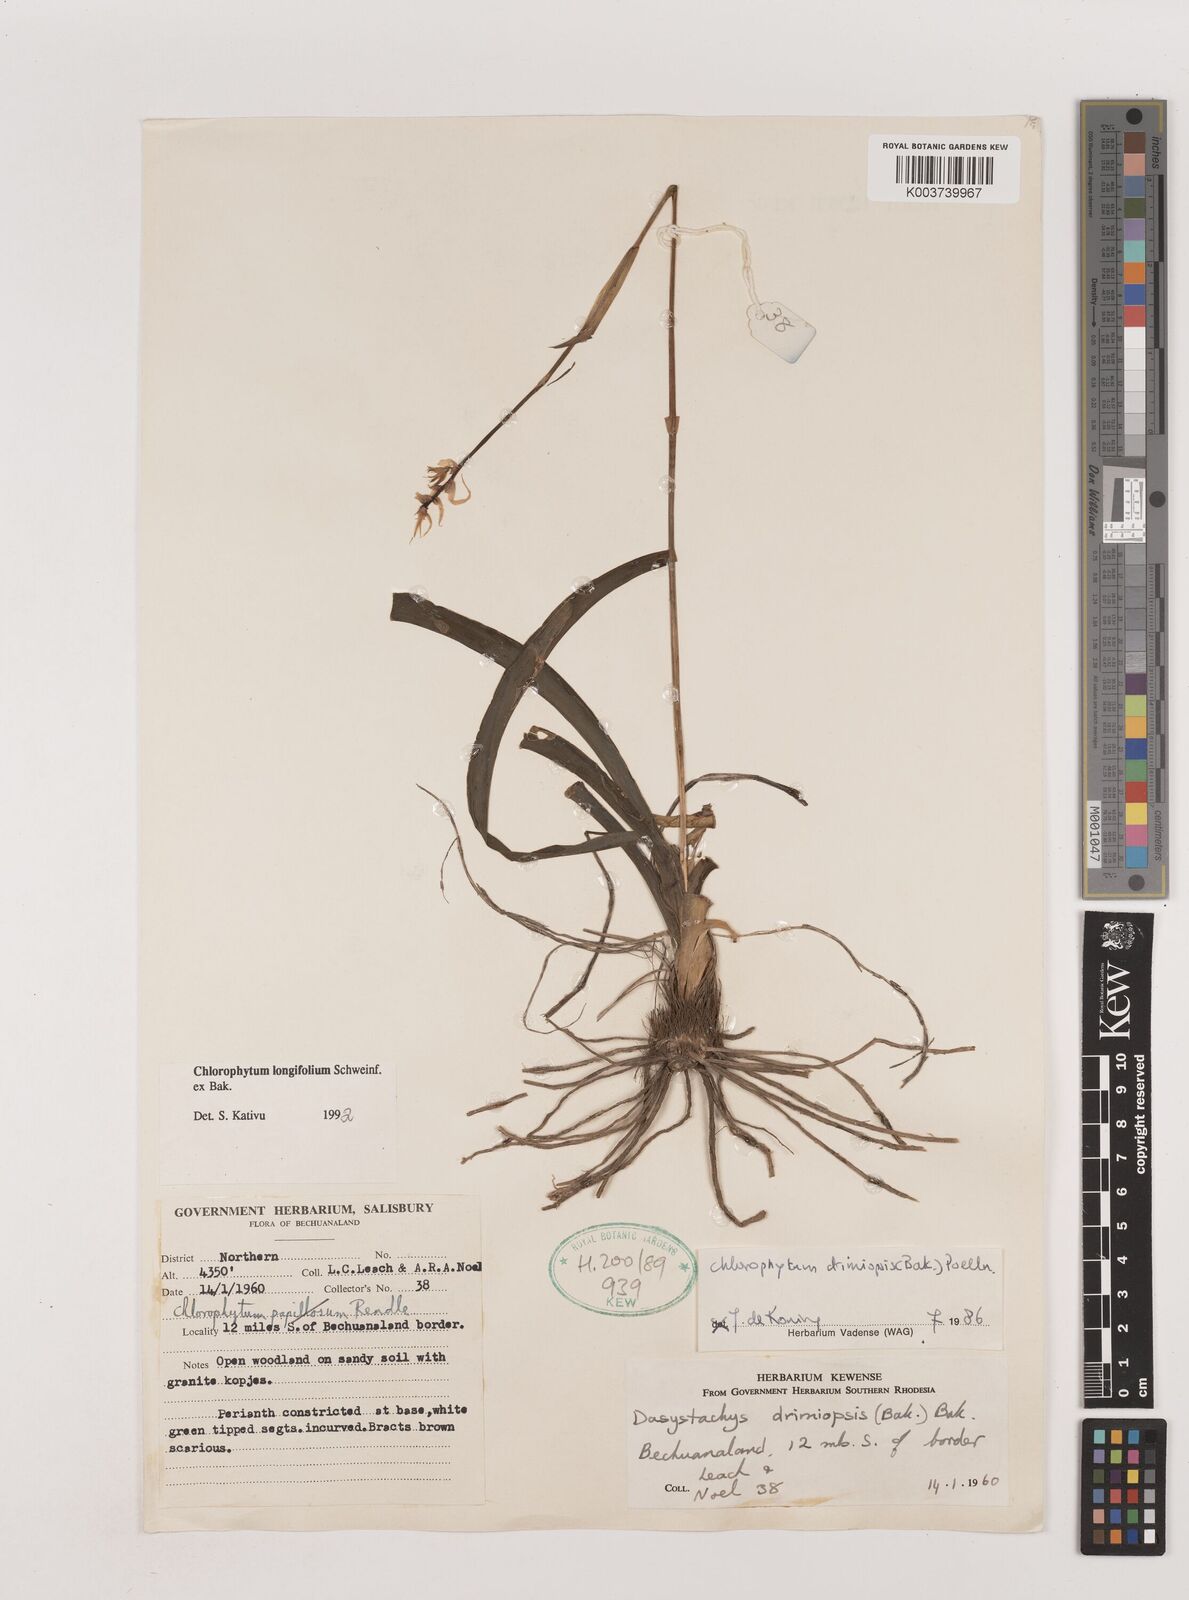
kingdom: Plantae
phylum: Tracheophyta
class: Liliopsida
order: Asparagales
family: Asparagaceae
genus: Chlorophytum
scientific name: Chlorophytum longifolium
